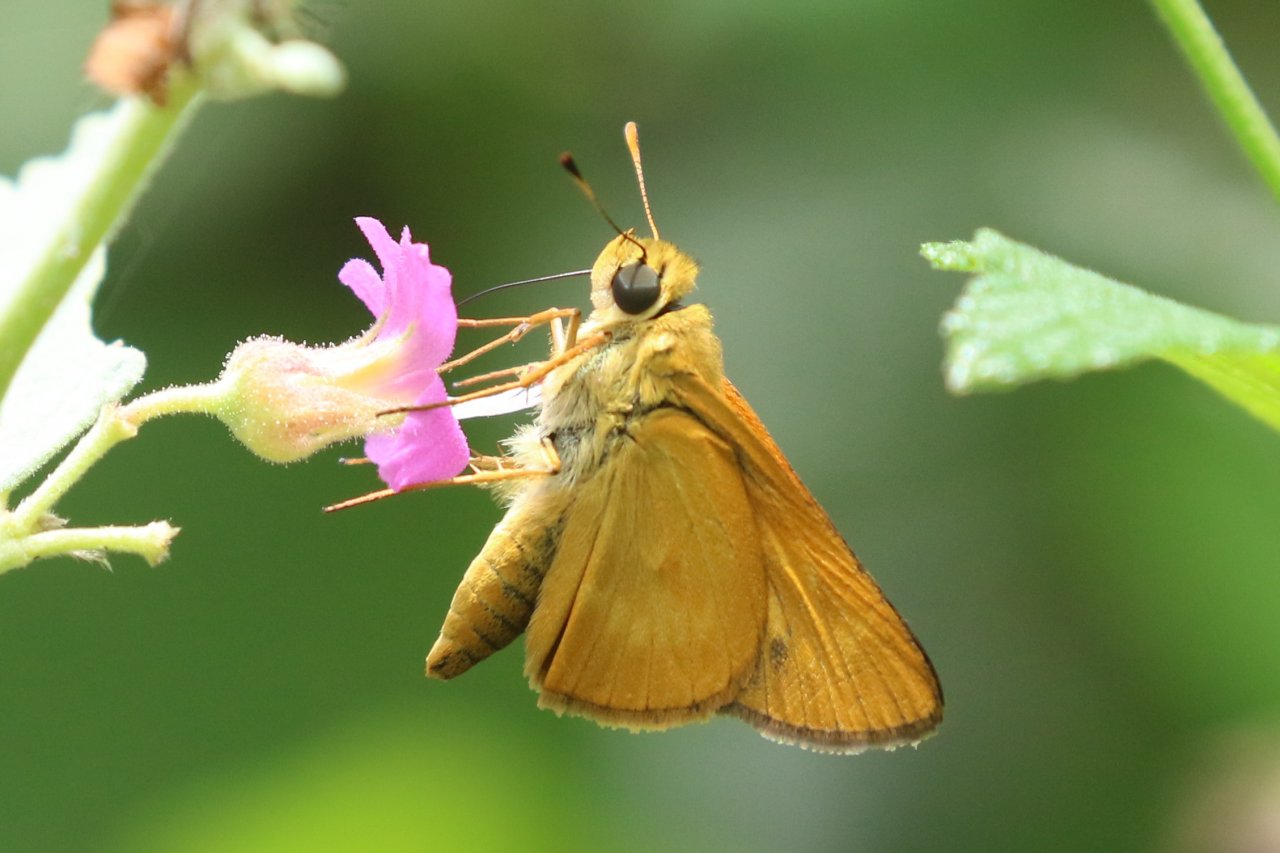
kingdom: Animalia
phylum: Arthropoda
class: Insecta
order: Lepidoptera
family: Hesperiidae
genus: Mellana
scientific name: Mellana eulogius
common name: Common Mellana
